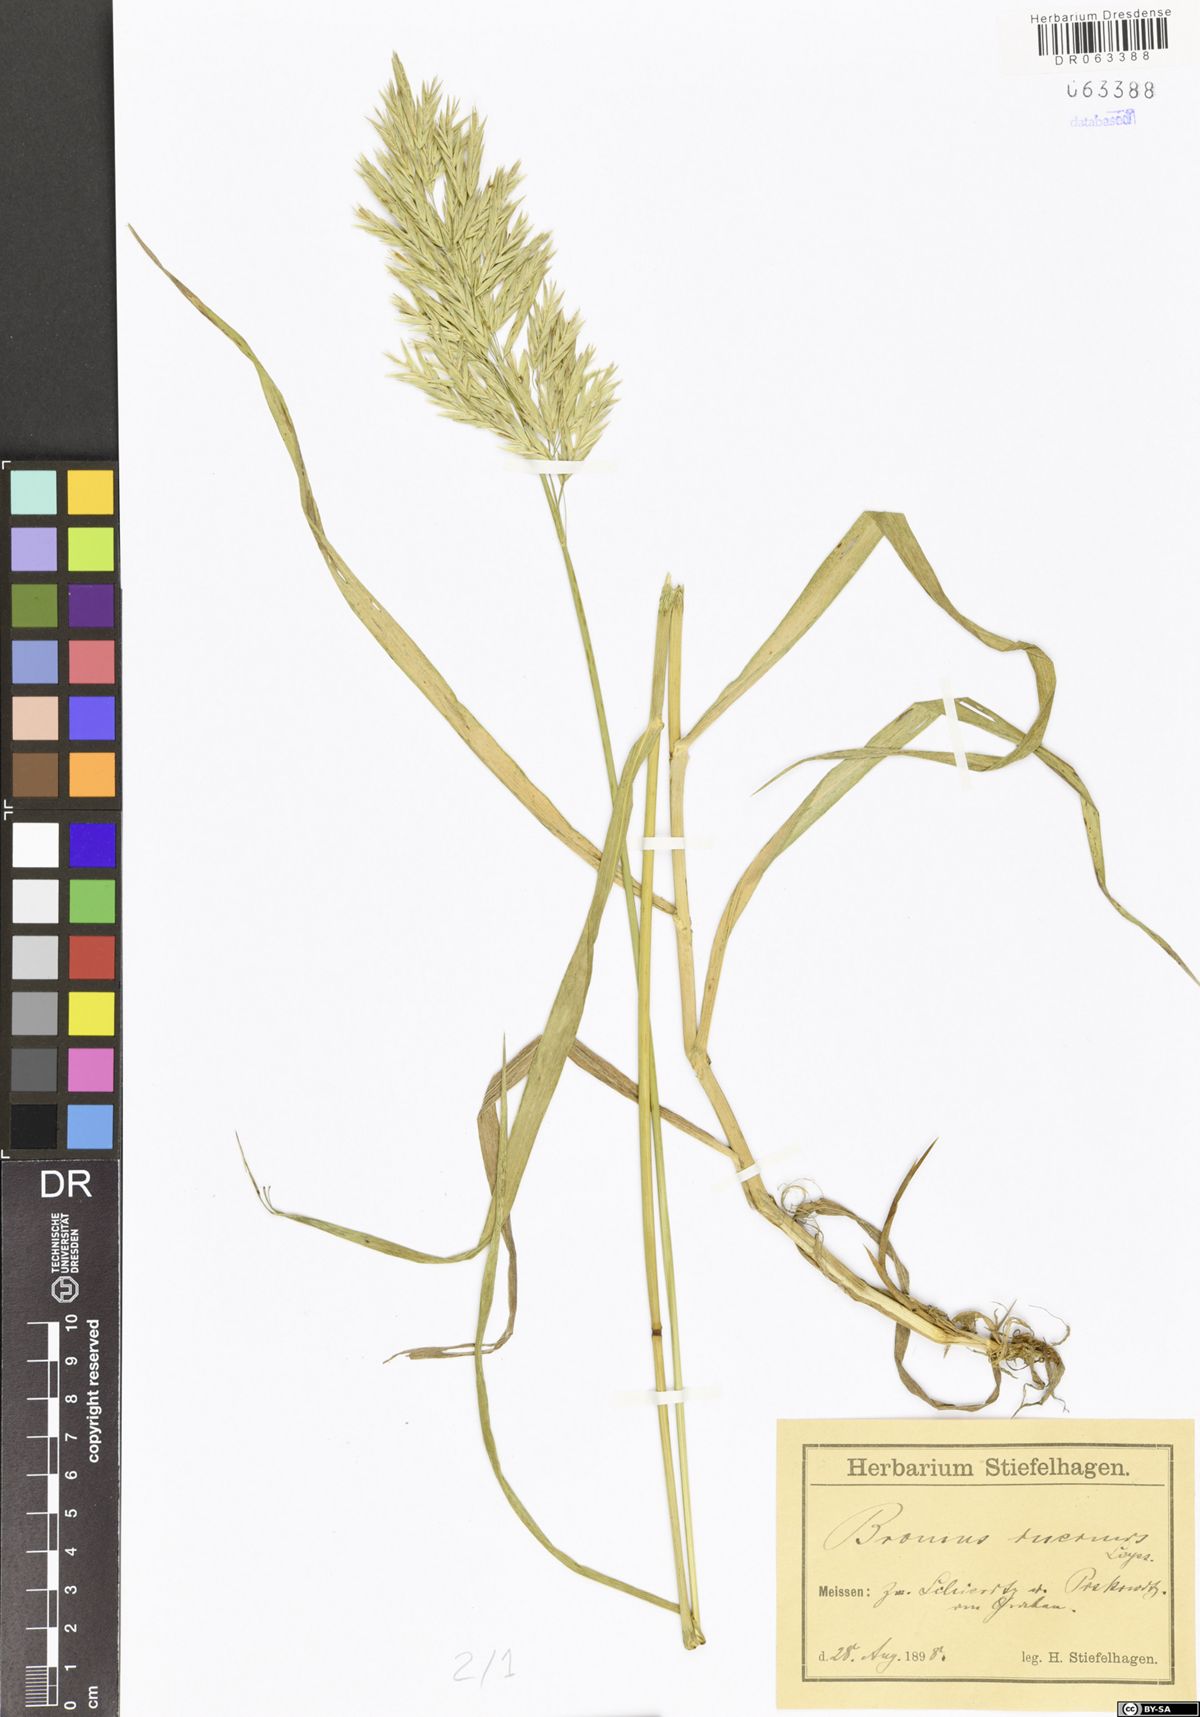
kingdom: Plantae
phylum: Tracheophyta
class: Liliopsida
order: Poales
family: Poaceae
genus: Bromus
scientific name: Bromus inermis
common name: Smooth brome
